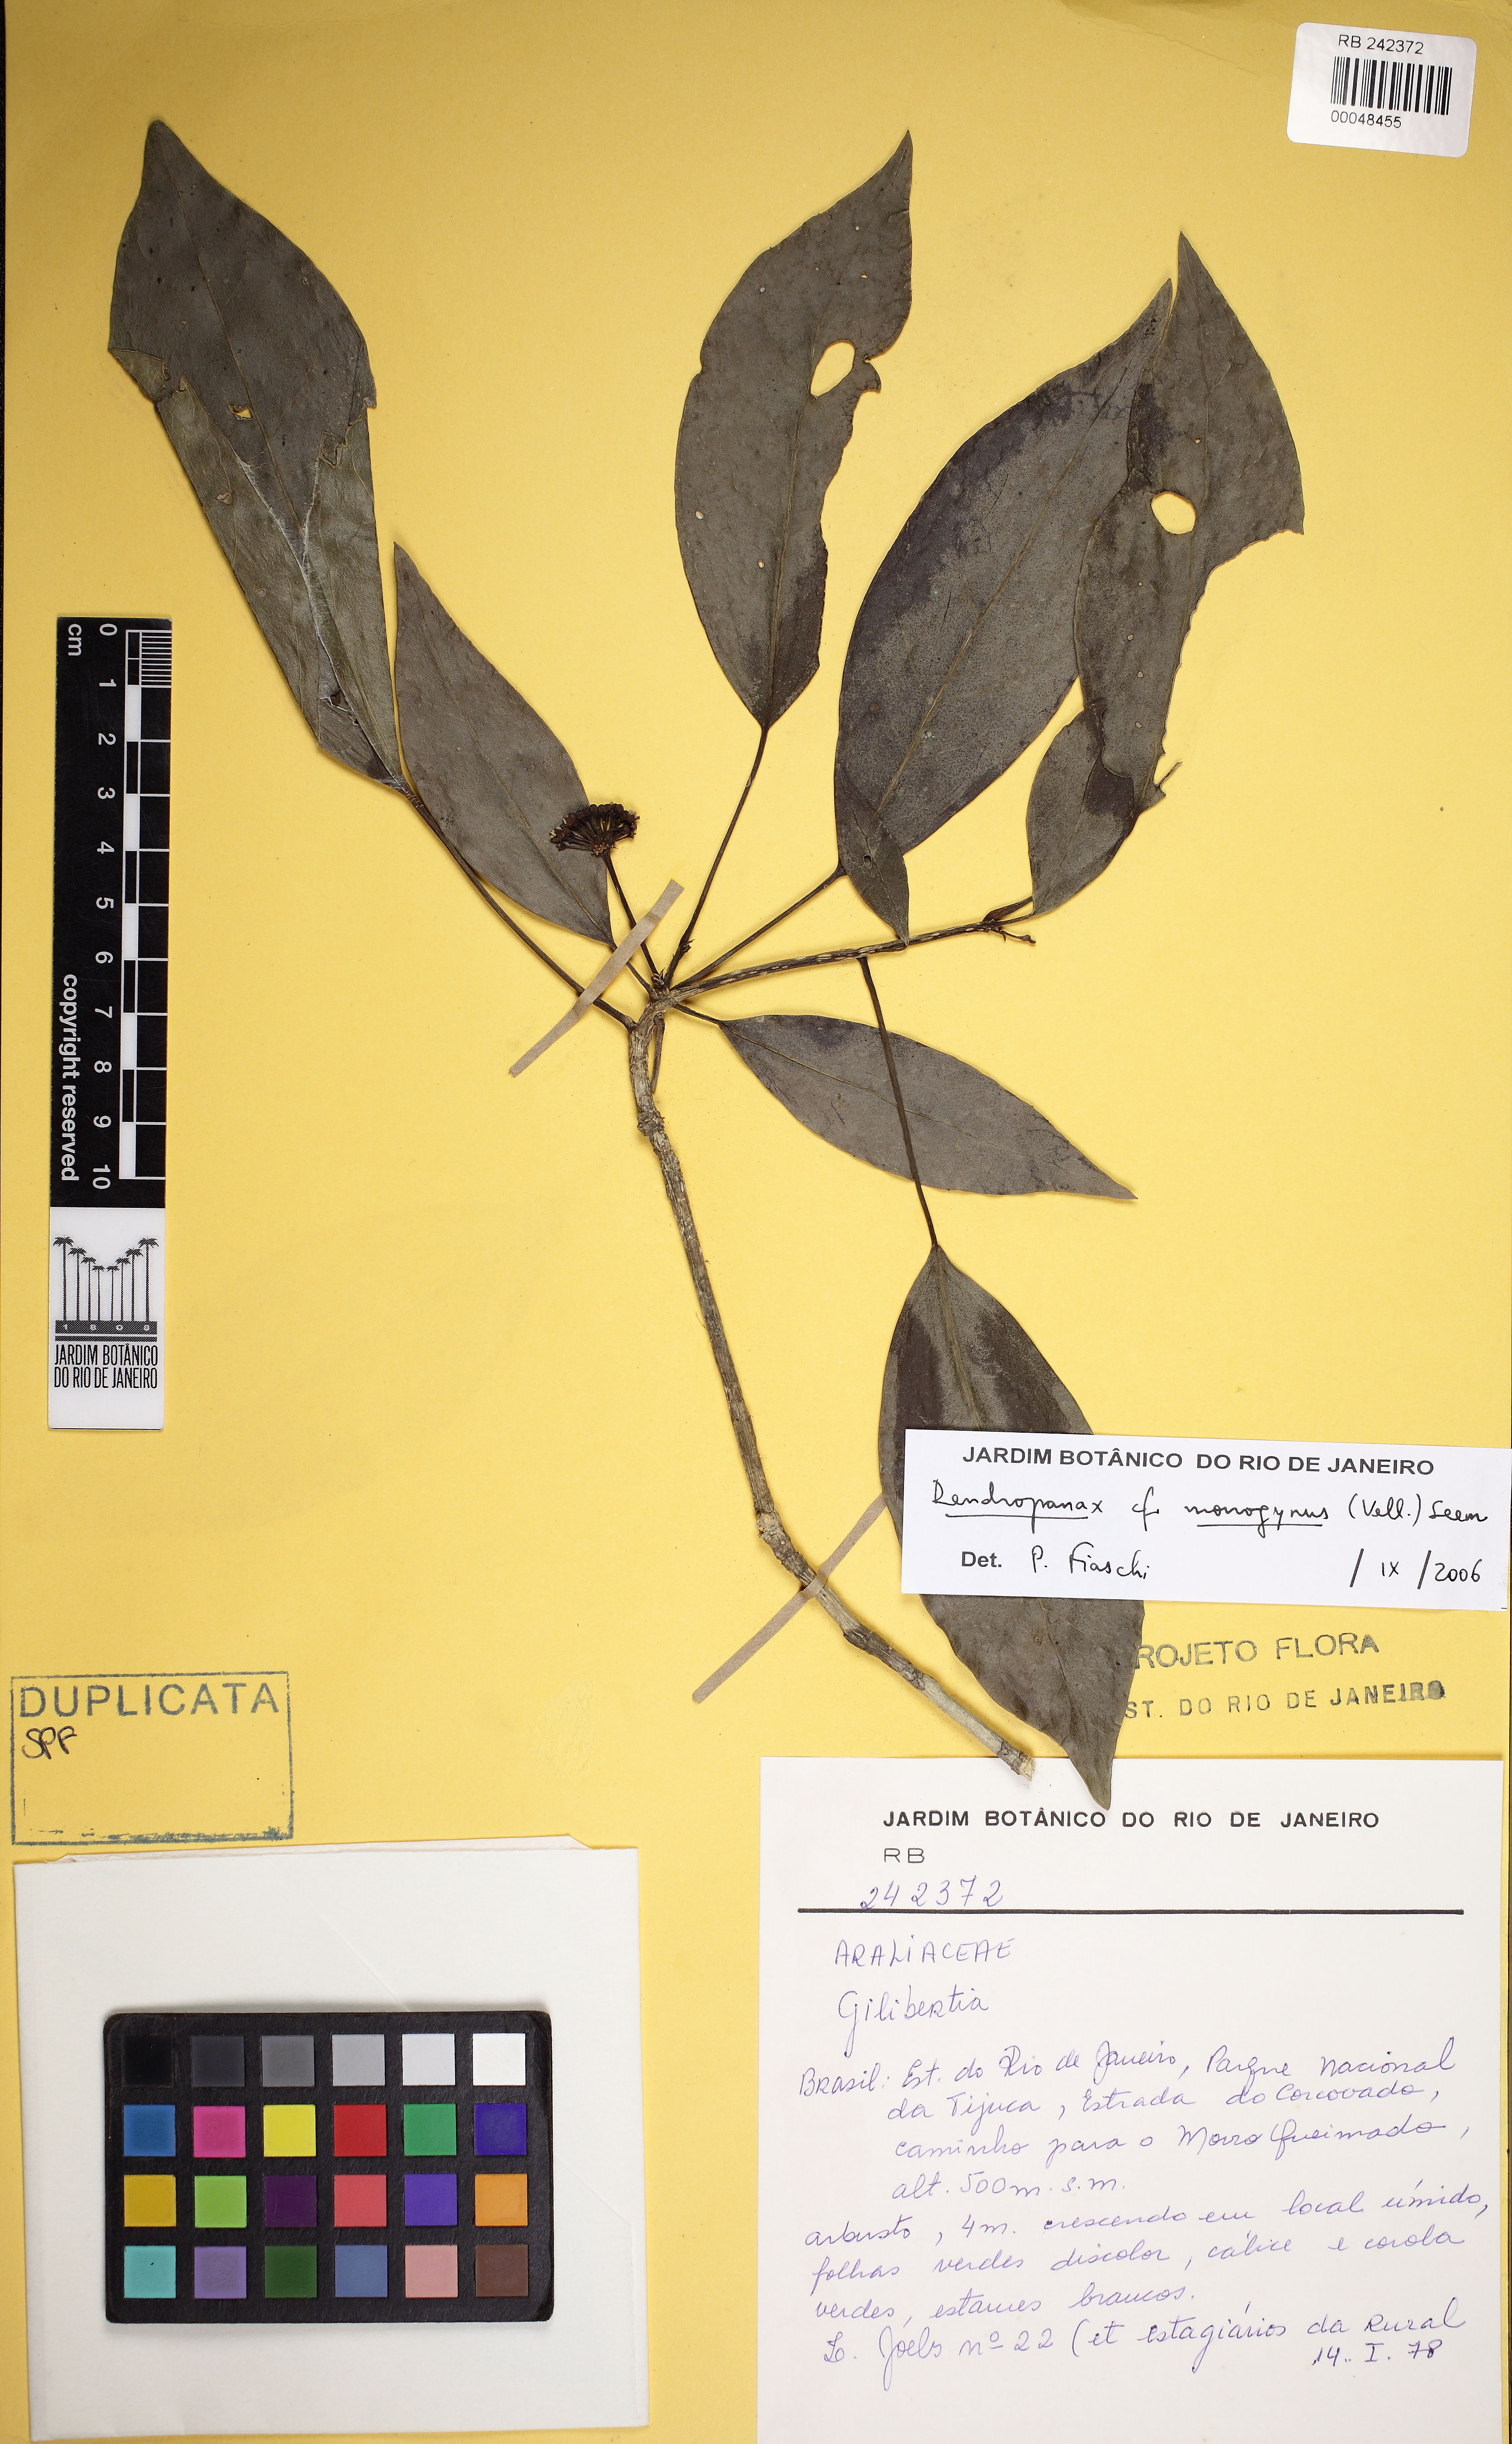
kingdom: Plantae
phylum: Tracheophyta
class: Magnoliopsida
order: Apiales
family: Araliaceae
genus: Dendropanax
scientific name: Dendropanax heterophyllus
